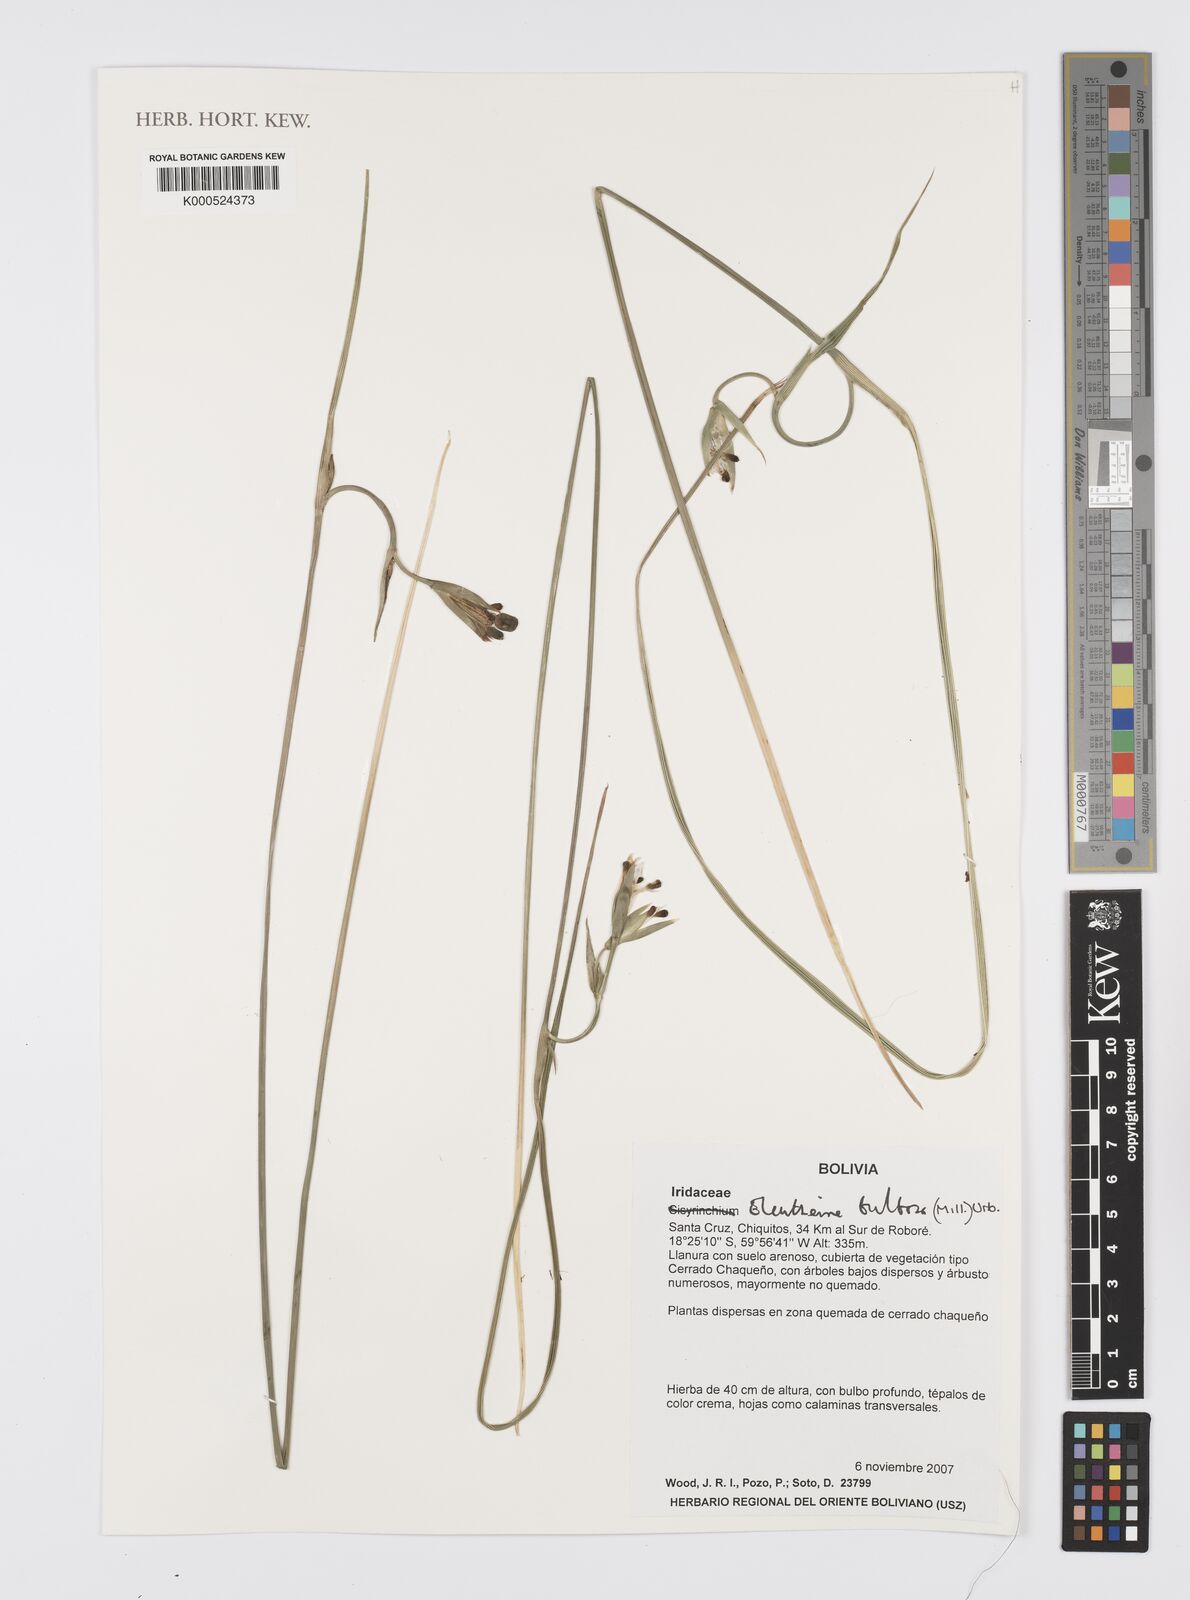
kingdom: Plantae
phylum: Tracheophyta
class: Liliopsida
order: Asparagales
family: Iridaceae
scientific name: Iridaceae
